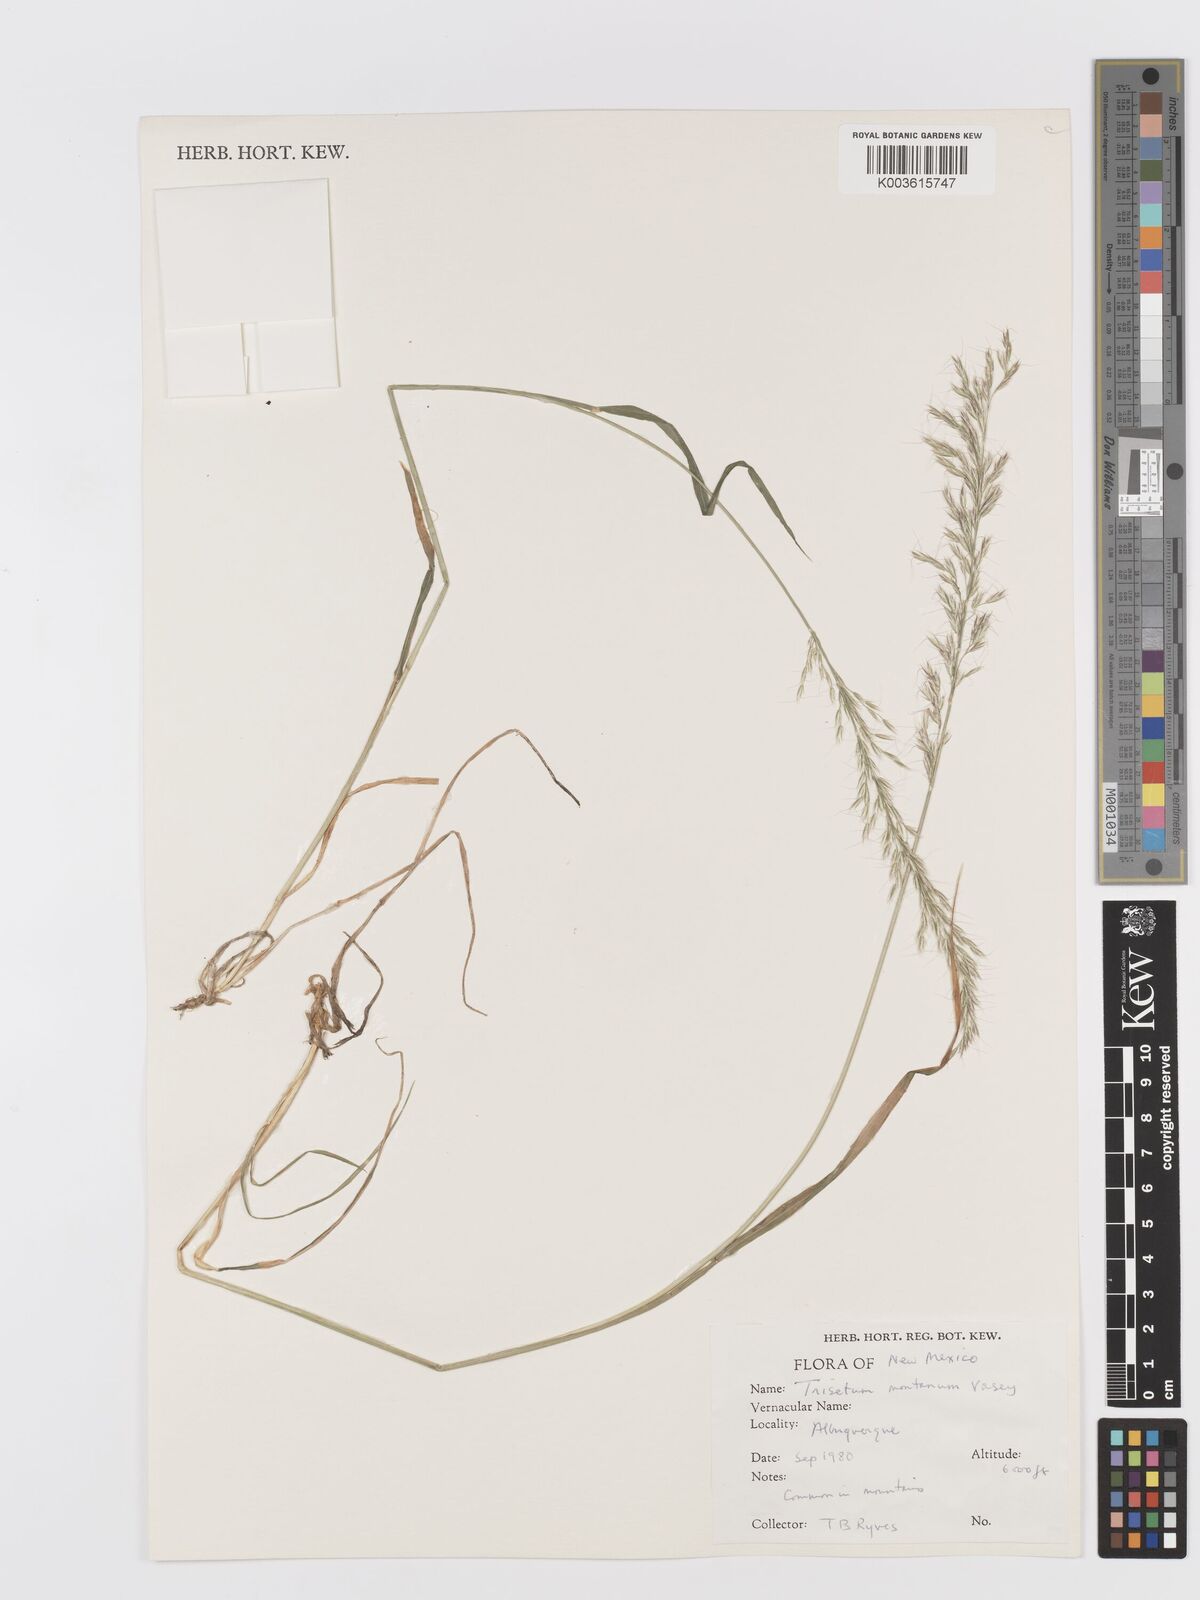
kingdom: Plantae
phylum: Tracheophyta
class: Liliopsida
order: Poales
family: Poaceae
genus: Koeleria
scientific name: Koeleria vaseyi
